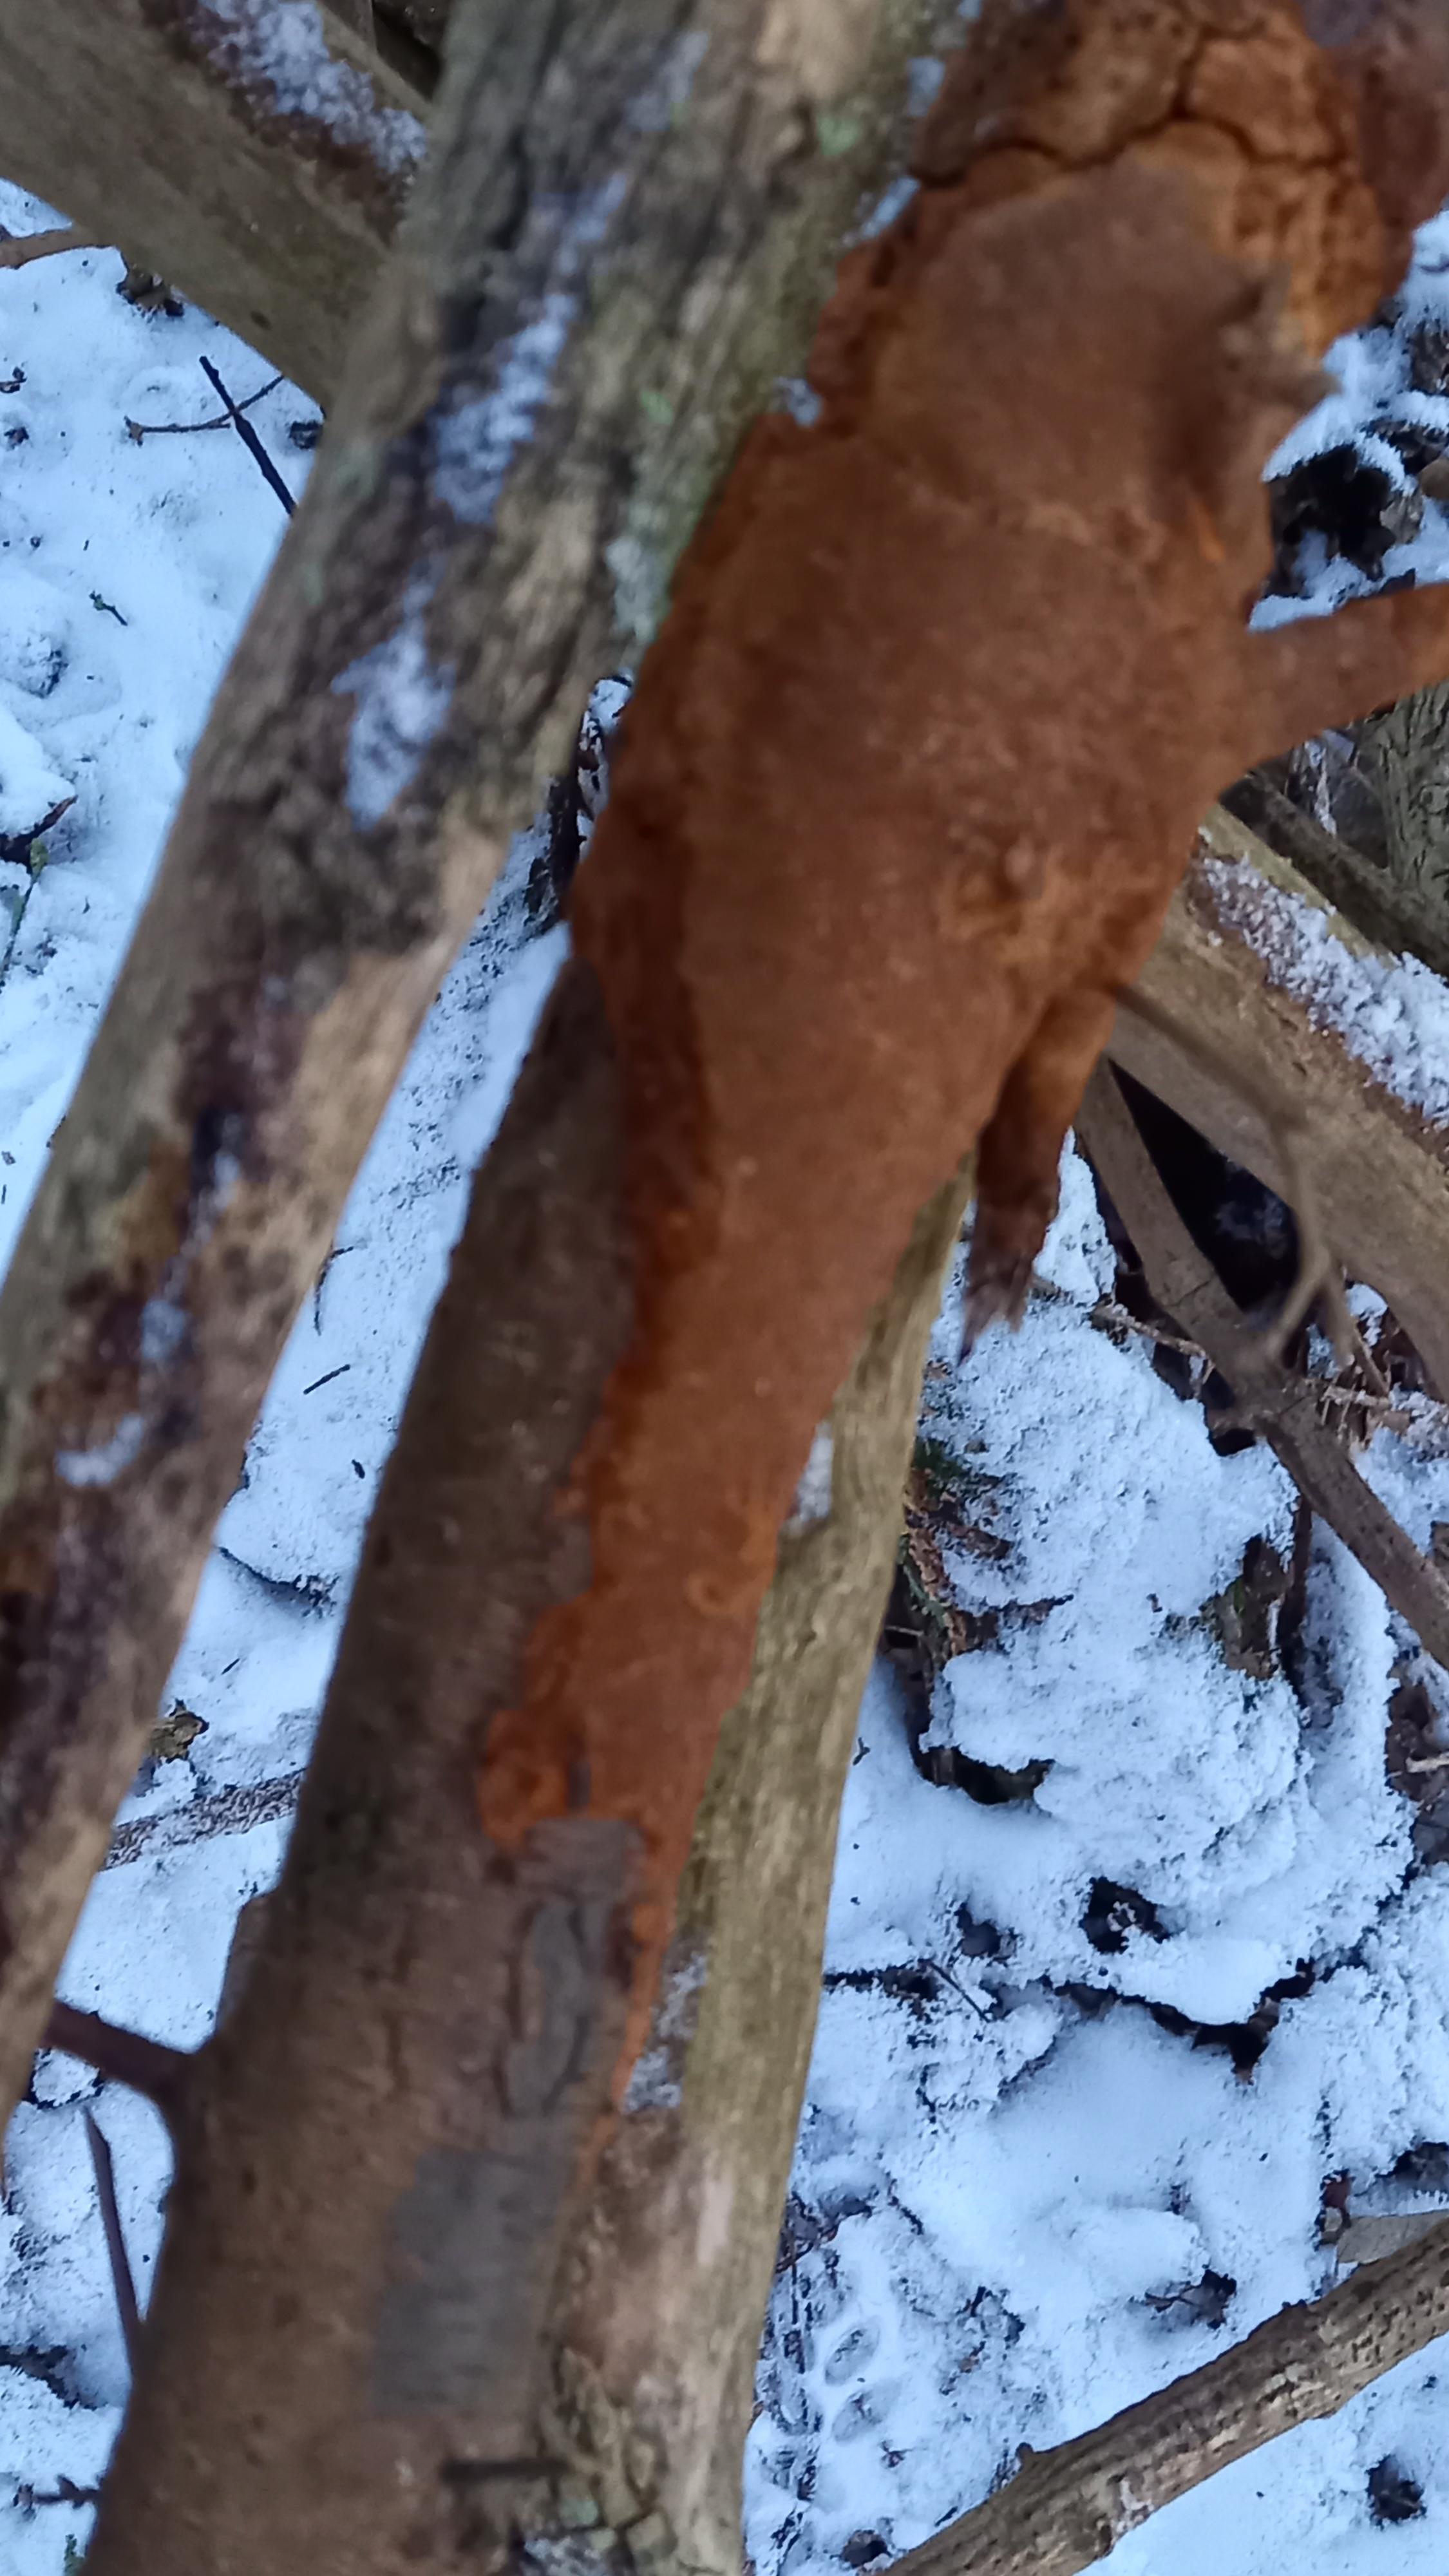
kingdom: Fungi
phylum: Basidiomycota
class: Agaricomycetes
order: Hymenochaetales
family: Hymenochaetaceae
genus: Fuscoporia
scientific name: Fuscoporia ferrea
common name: skorpe-ildporesvamp
